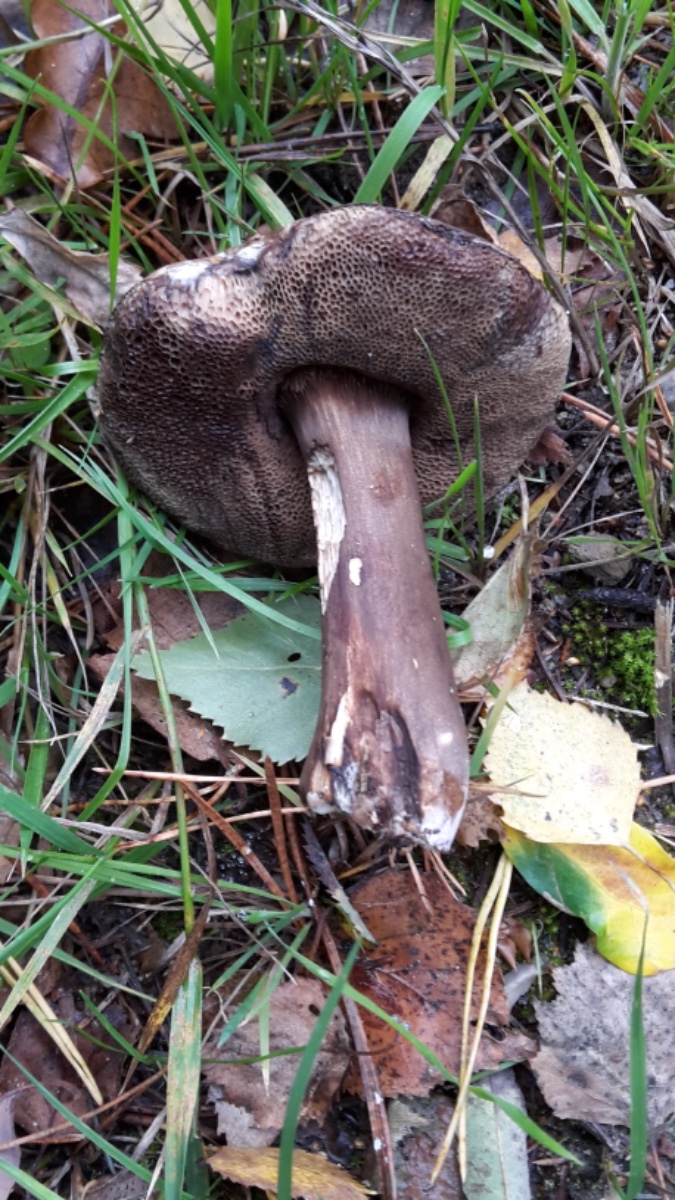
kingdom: Fungi
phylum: Basidiomycota
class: Agaricomycetes
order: Boletales
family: Boletaceae
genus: Porphyrellus
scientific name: Porphyrellus porphyrosporus
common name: sodrørhat
